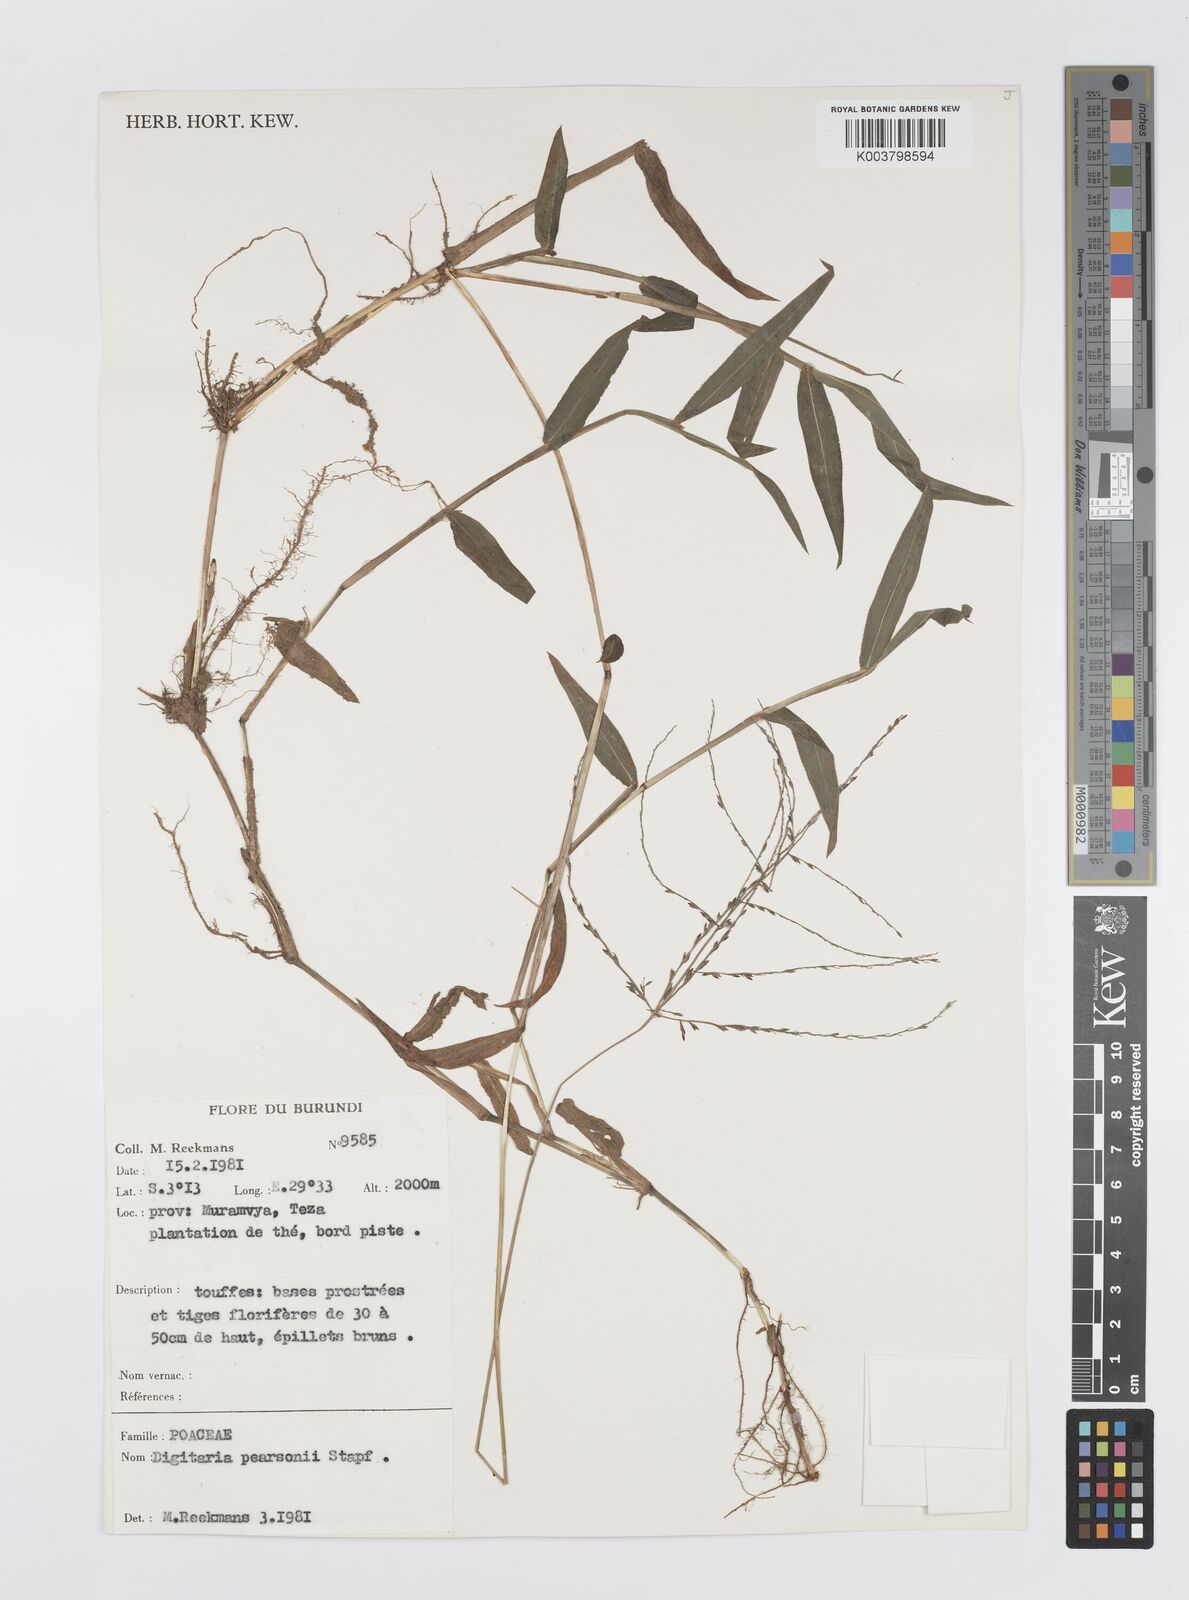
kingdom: Plantae
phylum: Tracheophyta
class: Liliopsida
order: Poales
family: Poaceae
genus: Digitaria
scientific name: Digitaria pearsonii
